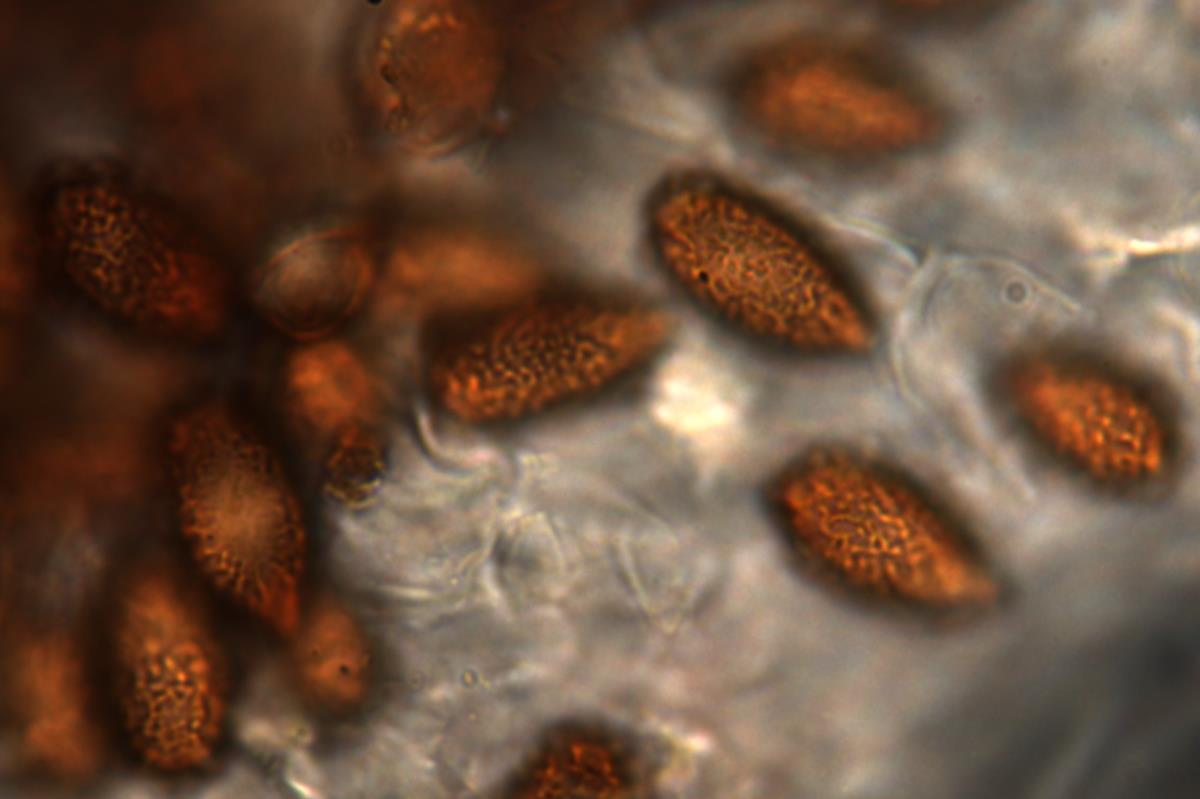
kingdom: Fungi
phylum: Basidiomycota
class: Agaricomycetes
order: Agaricales
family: Cortinariaceae
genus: Cortinarius
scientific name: Cortinarius beeverorum
